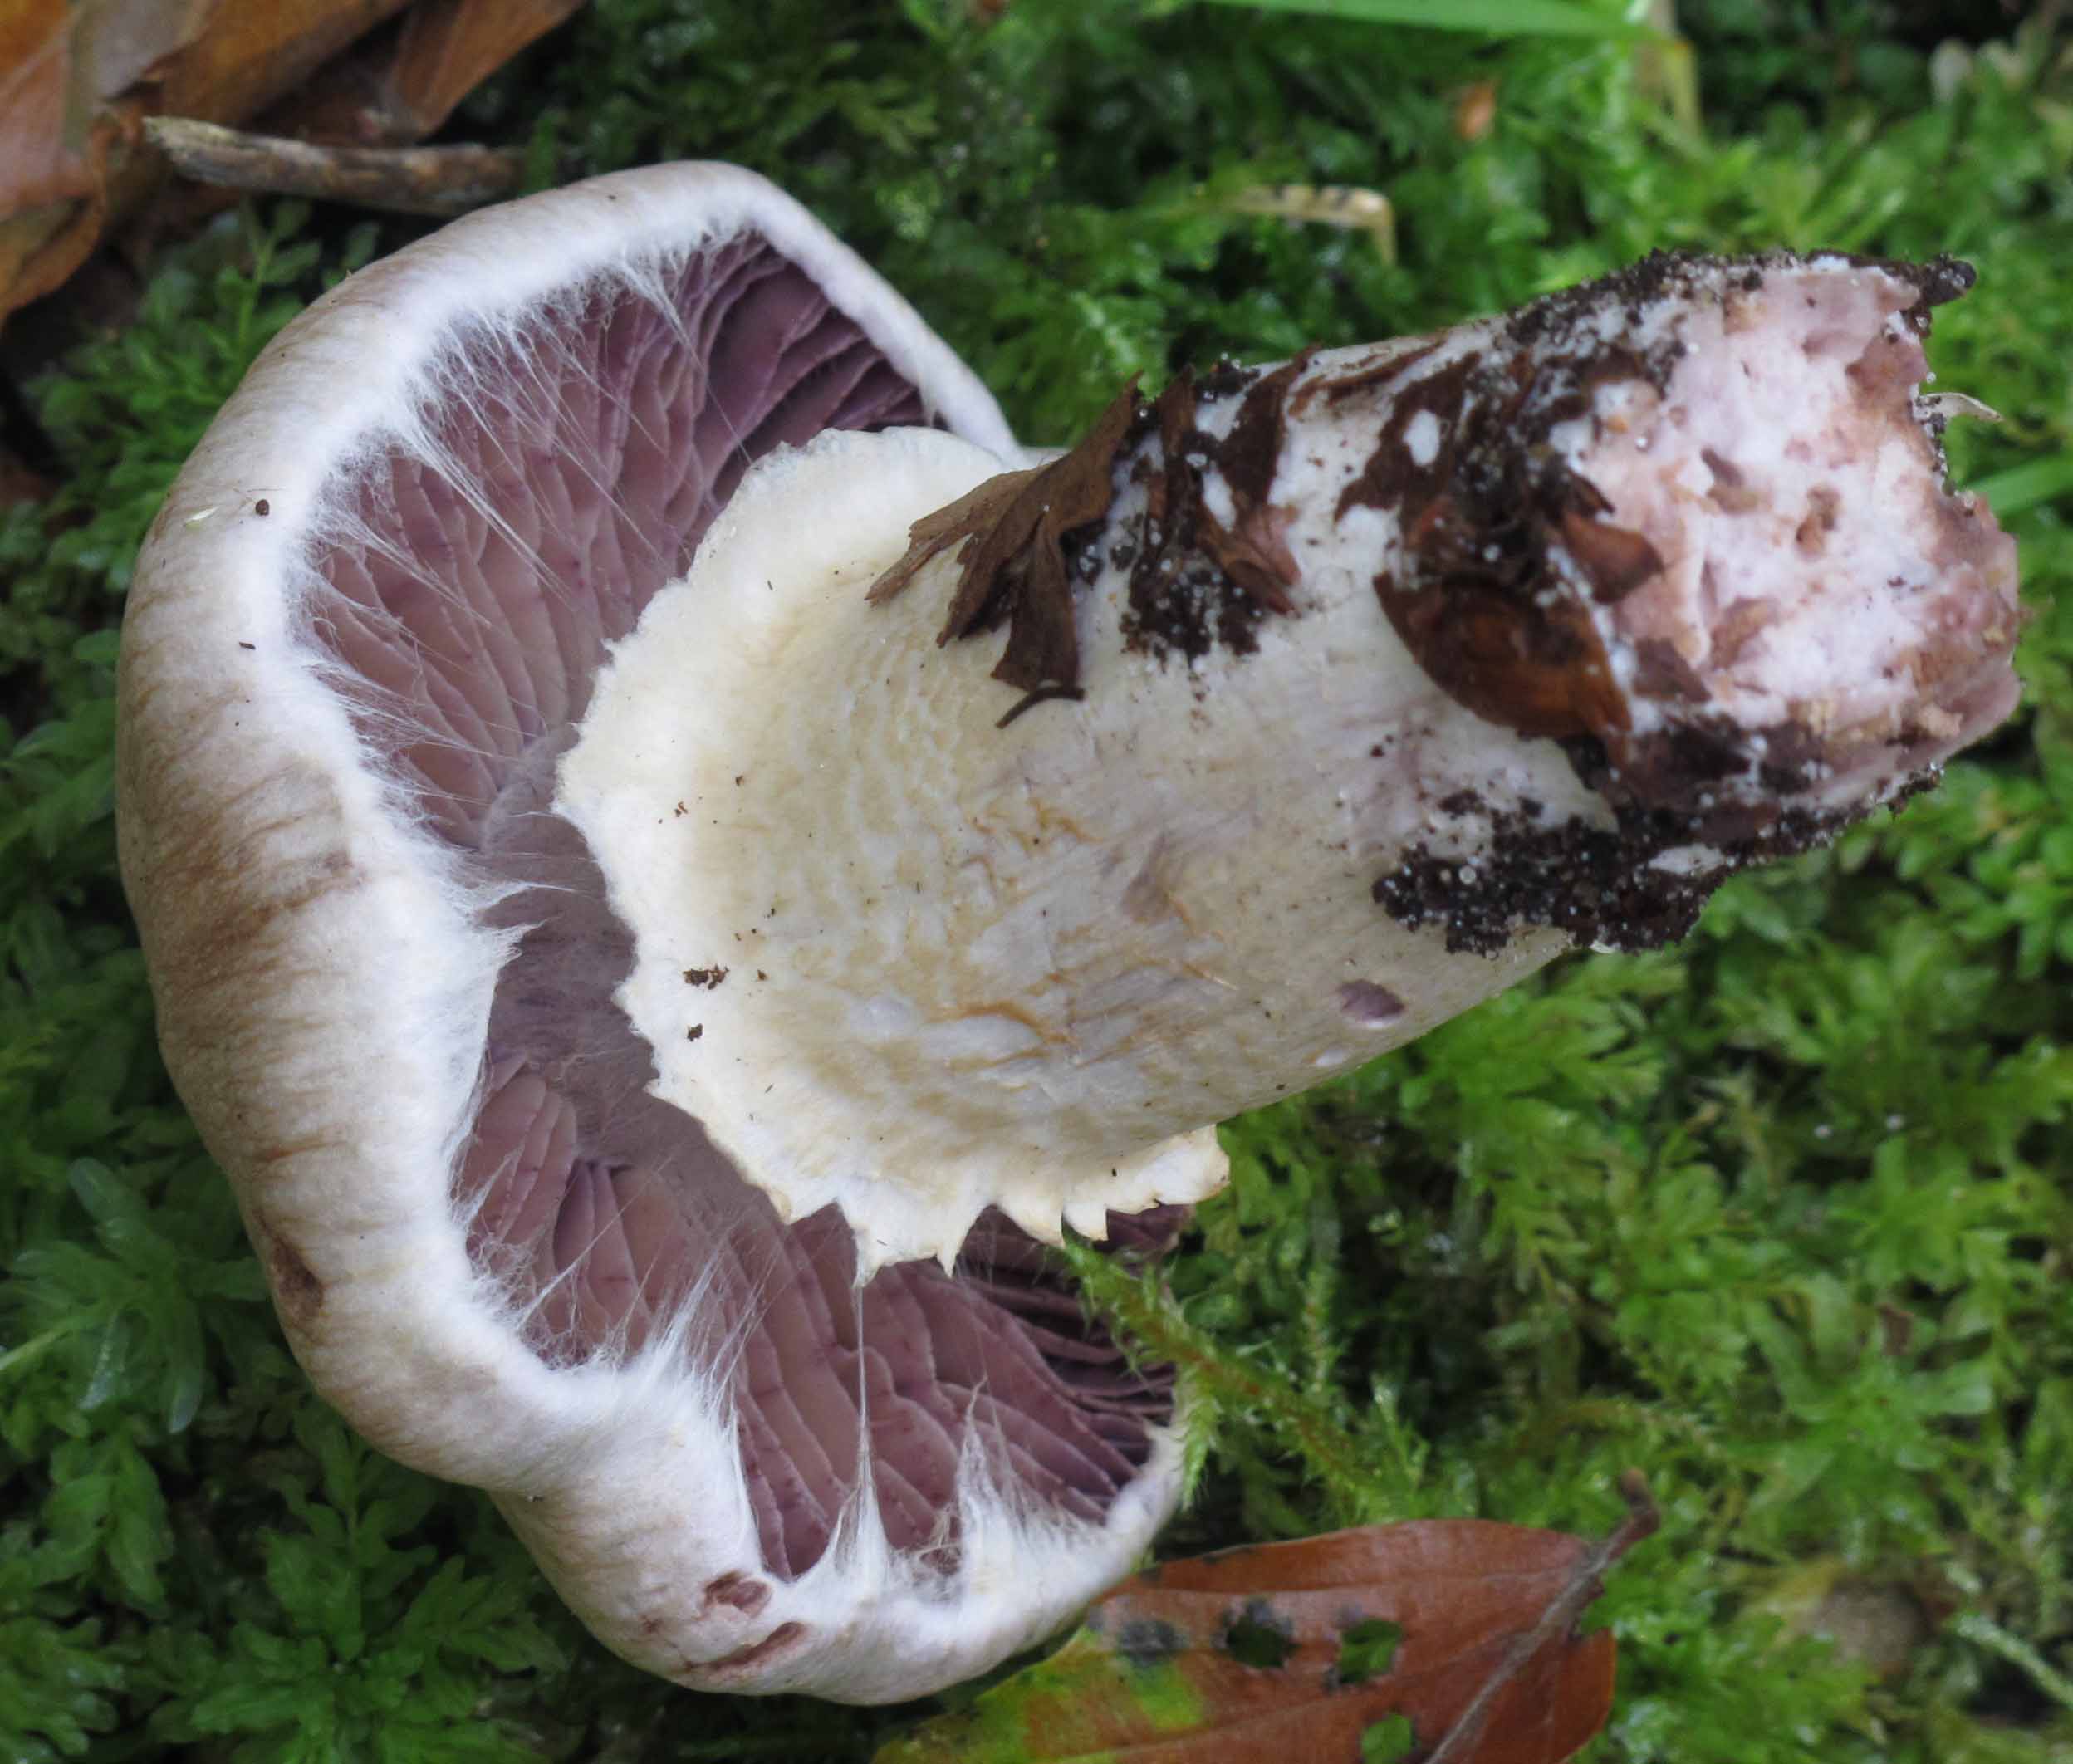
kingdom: Fungi
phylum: Basidiomycota
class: Agaricomycetes
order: Agaricales
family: Cortinariaceae
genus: Cortinarius
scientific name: Cortinarius torvus
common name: champignonagtig slørhat
